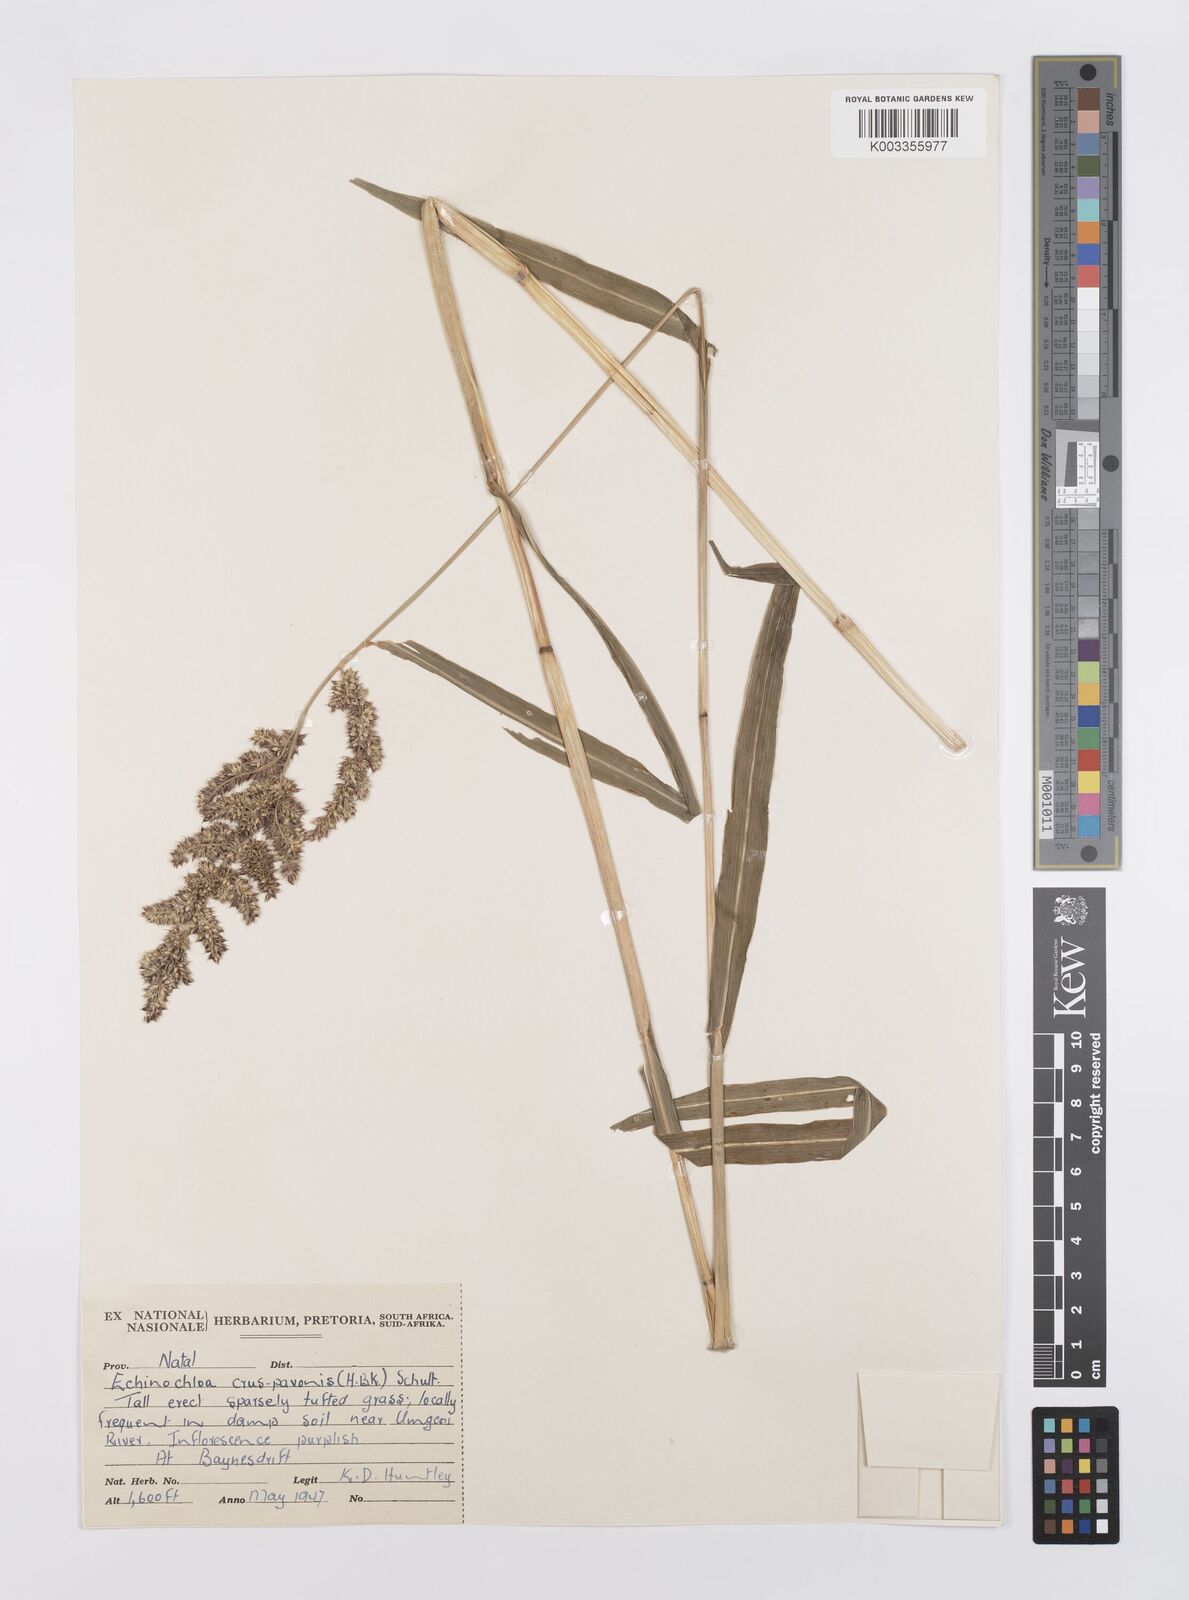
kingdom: Plantae
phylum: Tracheophyta
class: Liliopsida
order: Poales
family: Poaceae
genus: Echinochloa
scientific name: Echinochloa crus-pavonis
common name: Gulf cockspur grass
